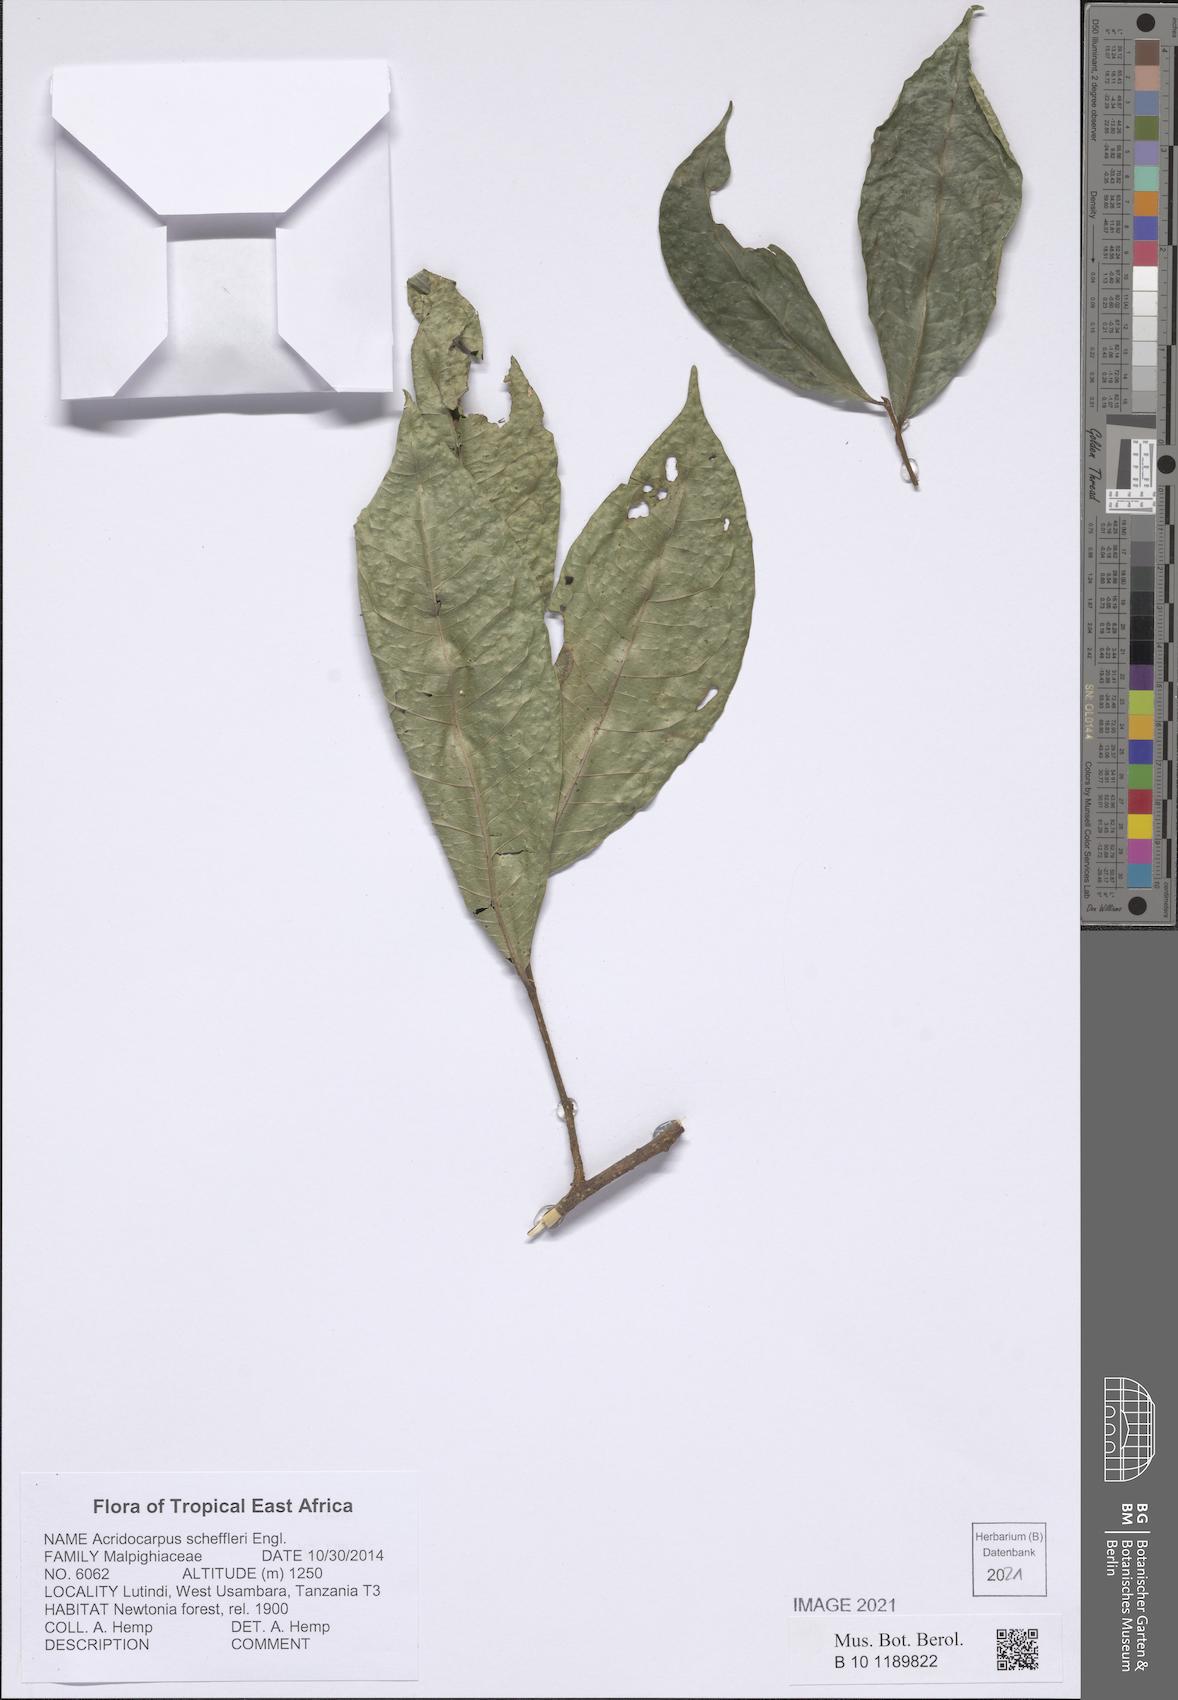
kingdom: Plantae
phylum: Tracheophyta
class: Magnoliopsida
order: Malpighiales
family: Malpighiaceae
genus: Acridocarpus
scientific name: Acridocarpus ugandensis
